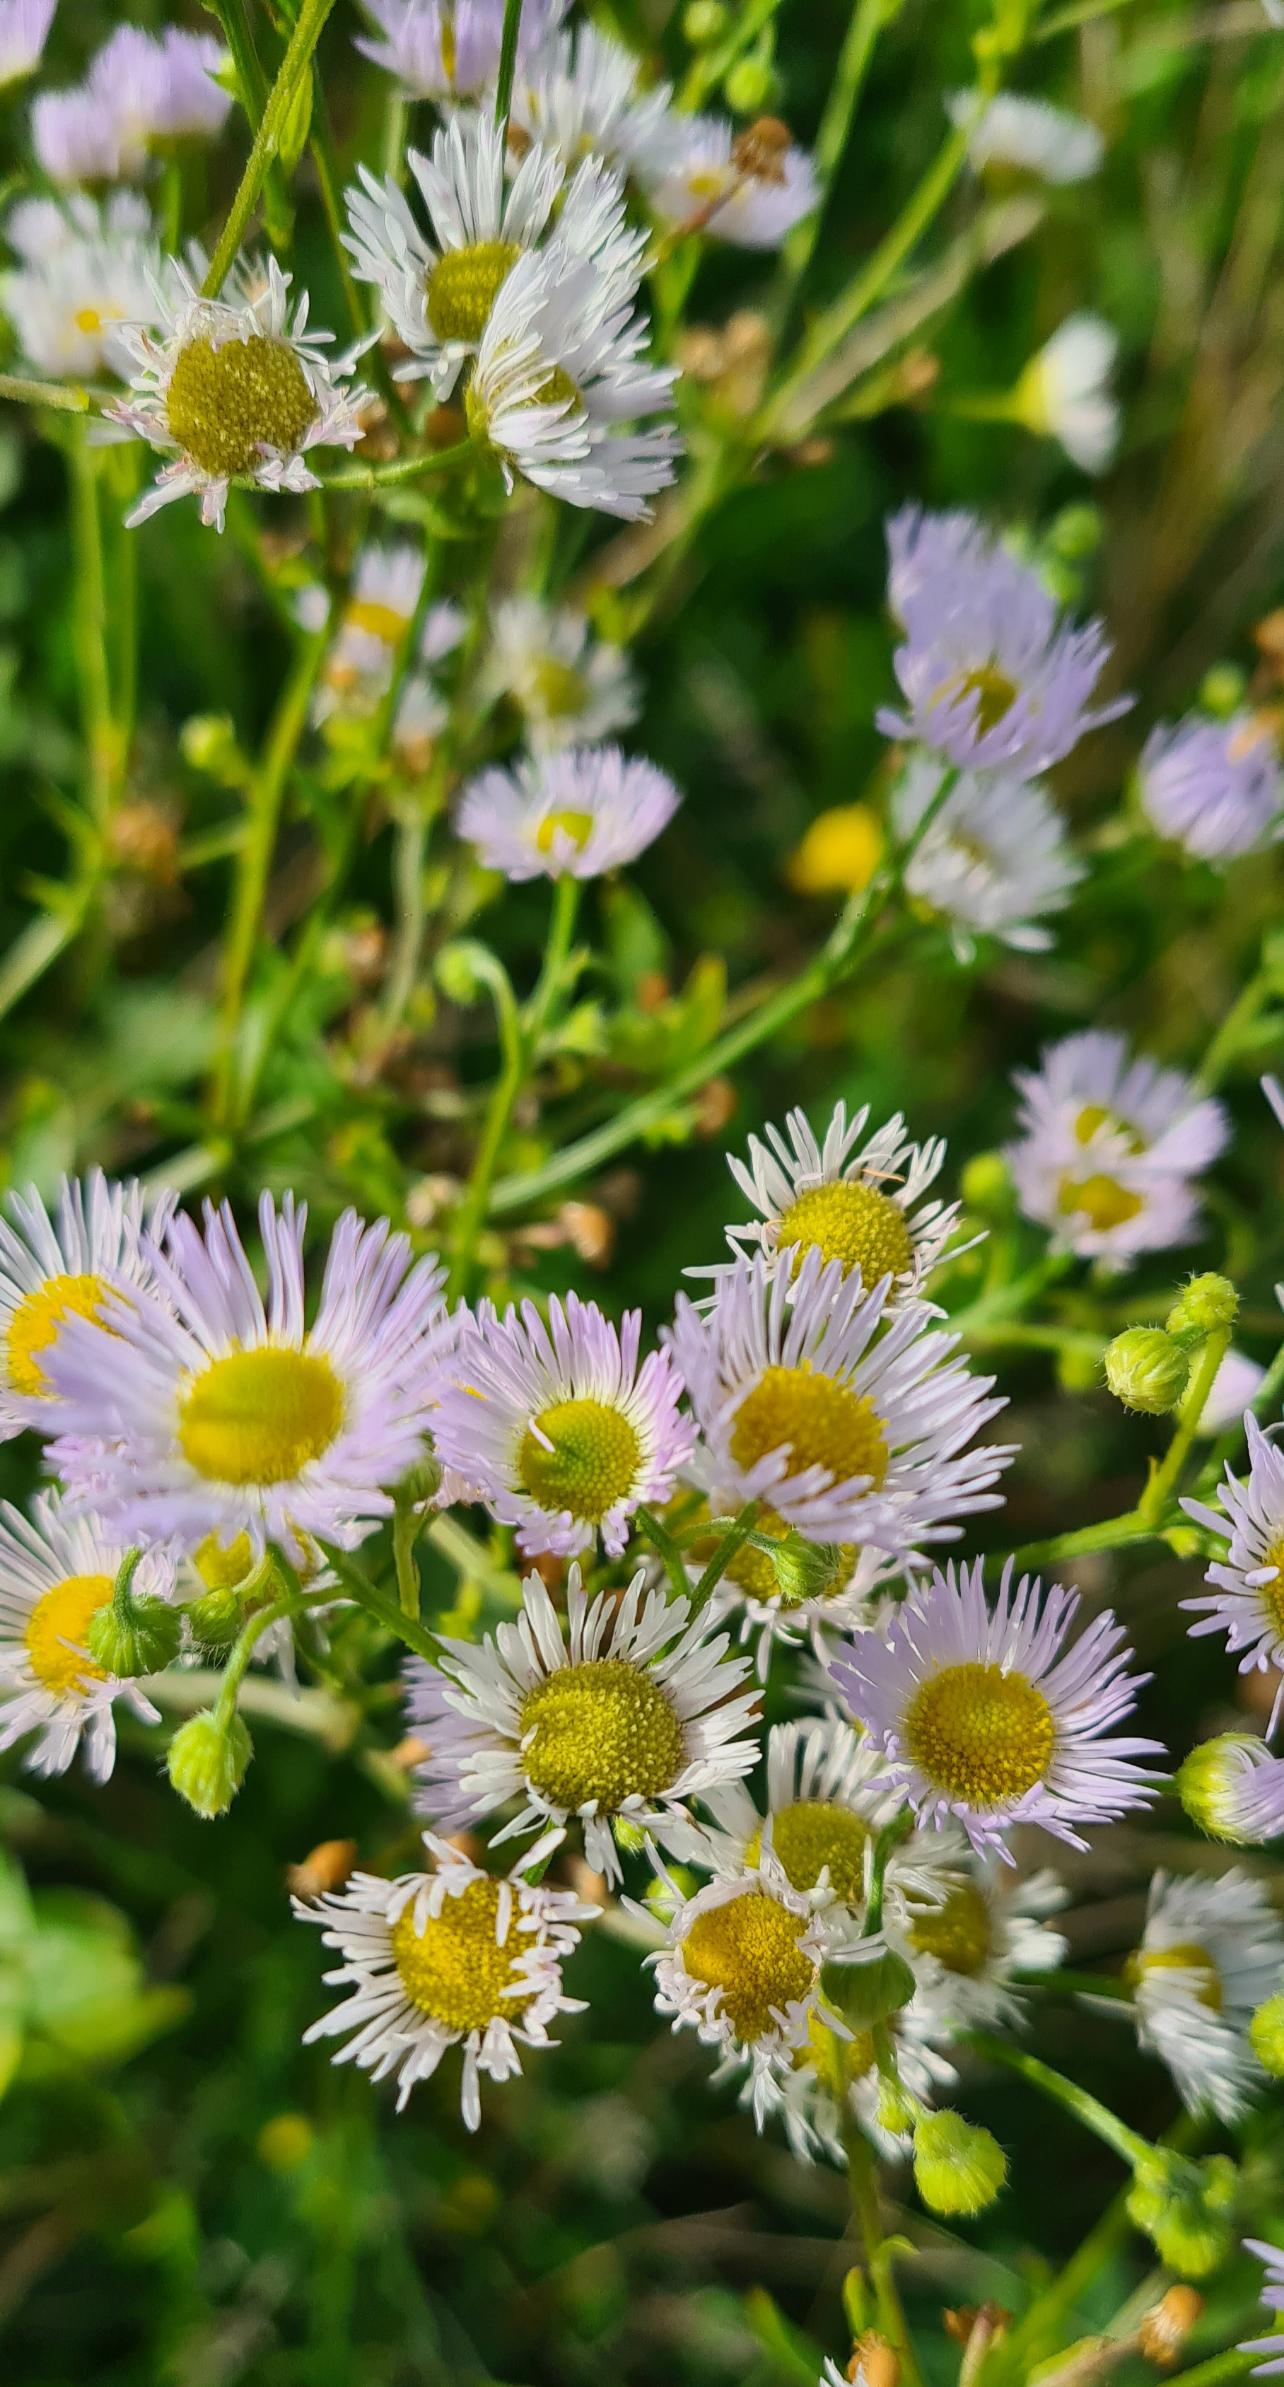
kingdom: Plantae
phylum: Tracheophyta
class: Magnoliopsida
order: Asterales
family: Asteraceae
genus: Erigeron
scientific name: Erigeron annuus
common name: Smalstråle
